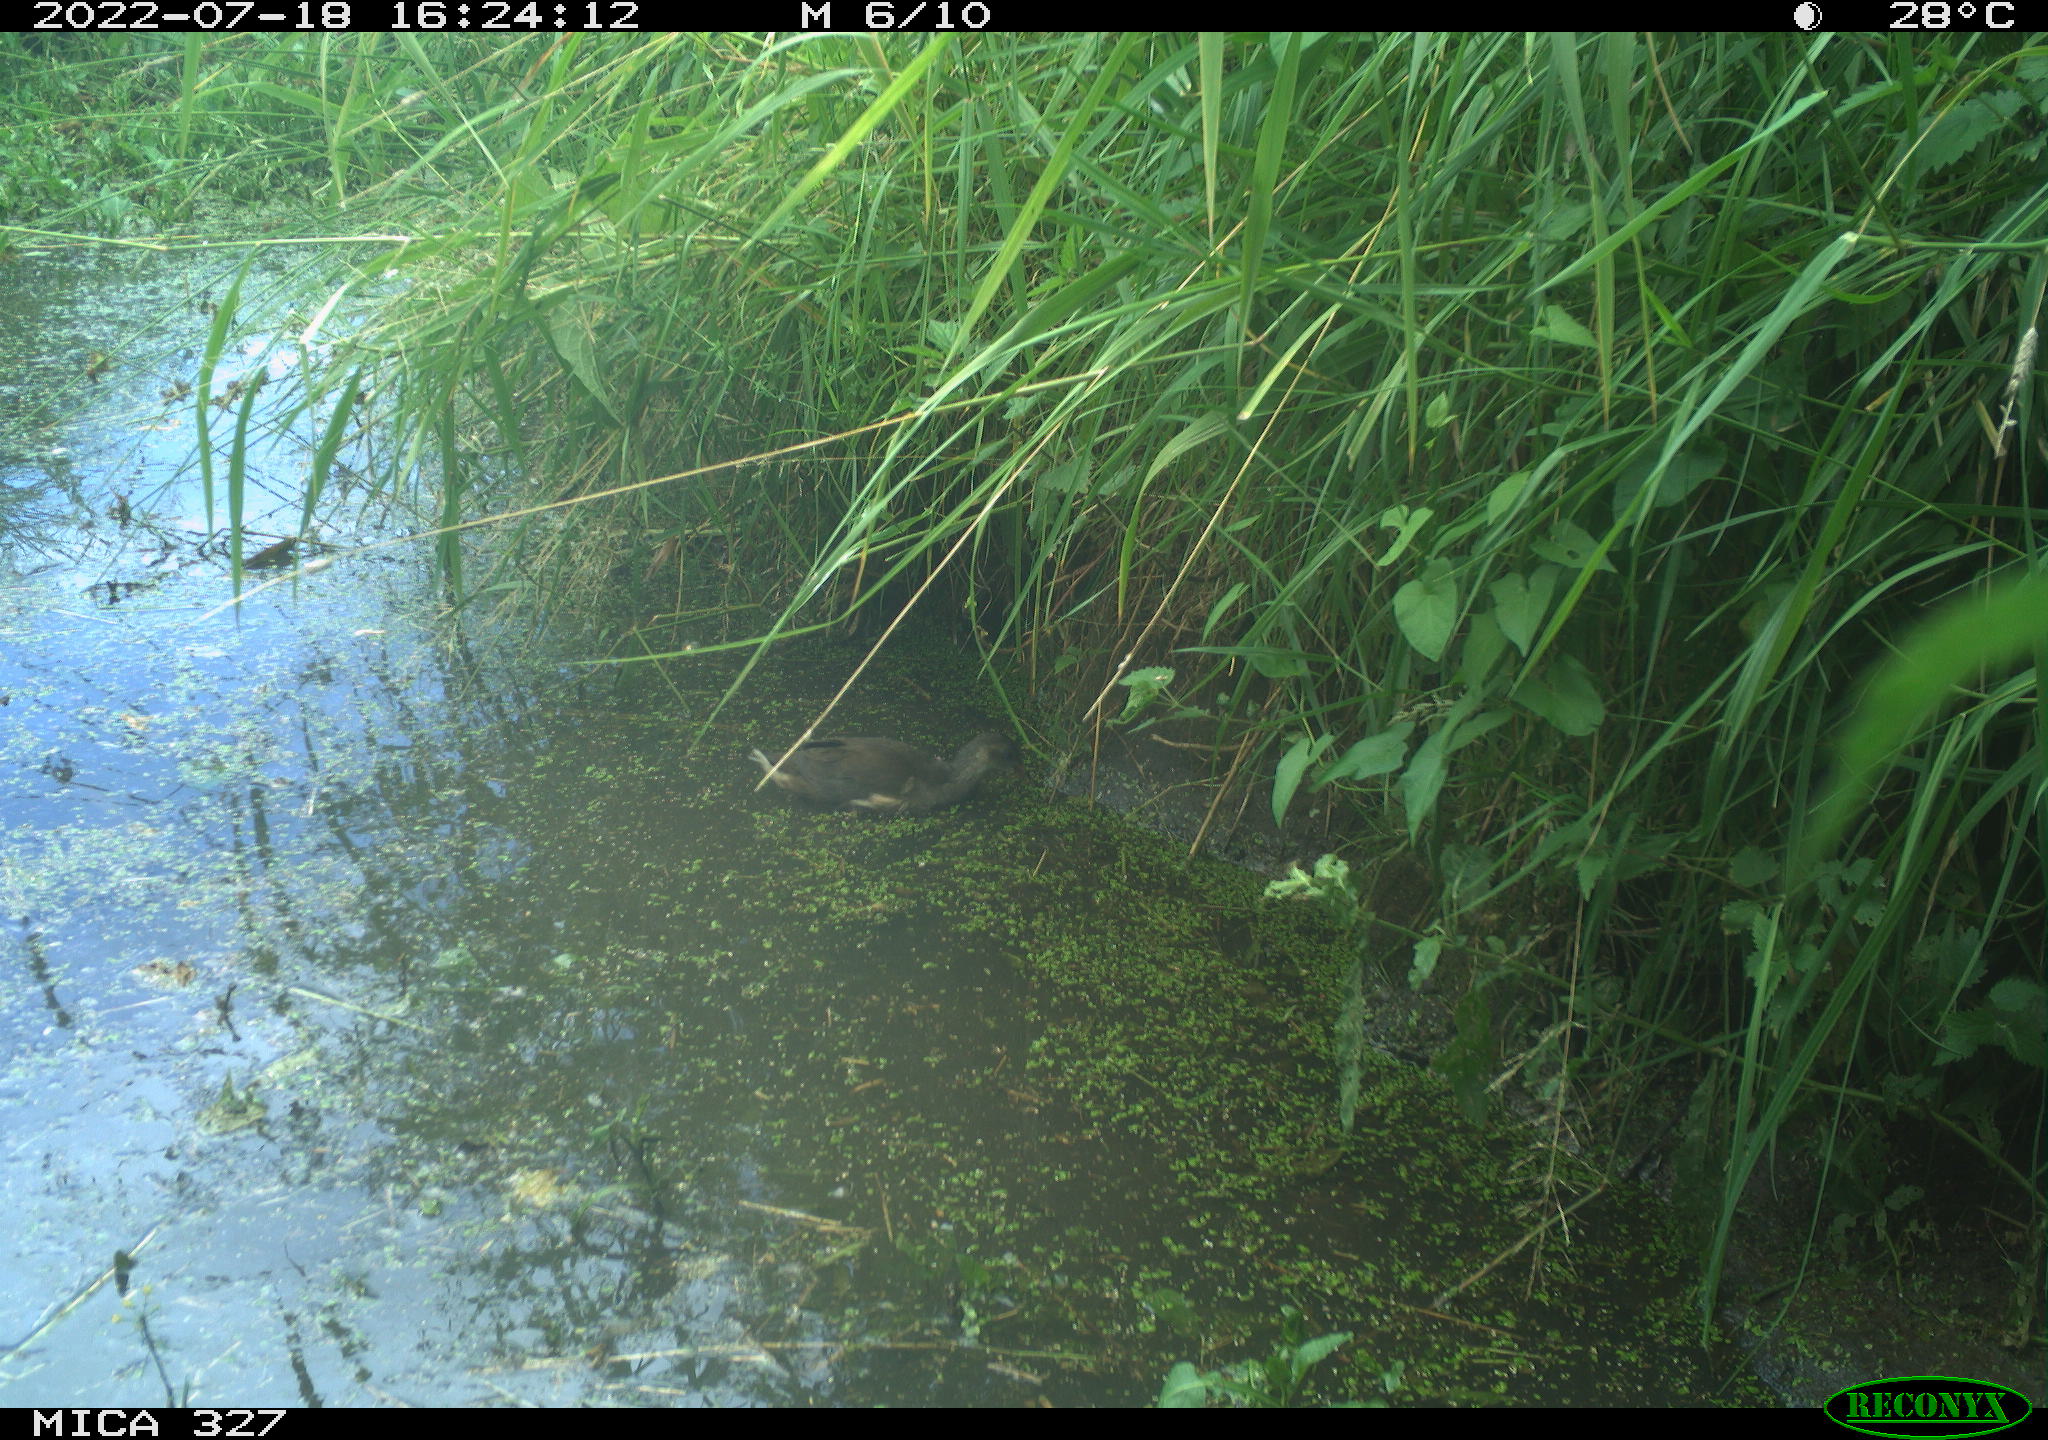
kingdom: Animalia
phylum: Chordata
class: Aves
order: Gruiformes
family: Rallidae
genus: Gallinula
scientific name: Gallinula chloropus
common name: Common moorhen
